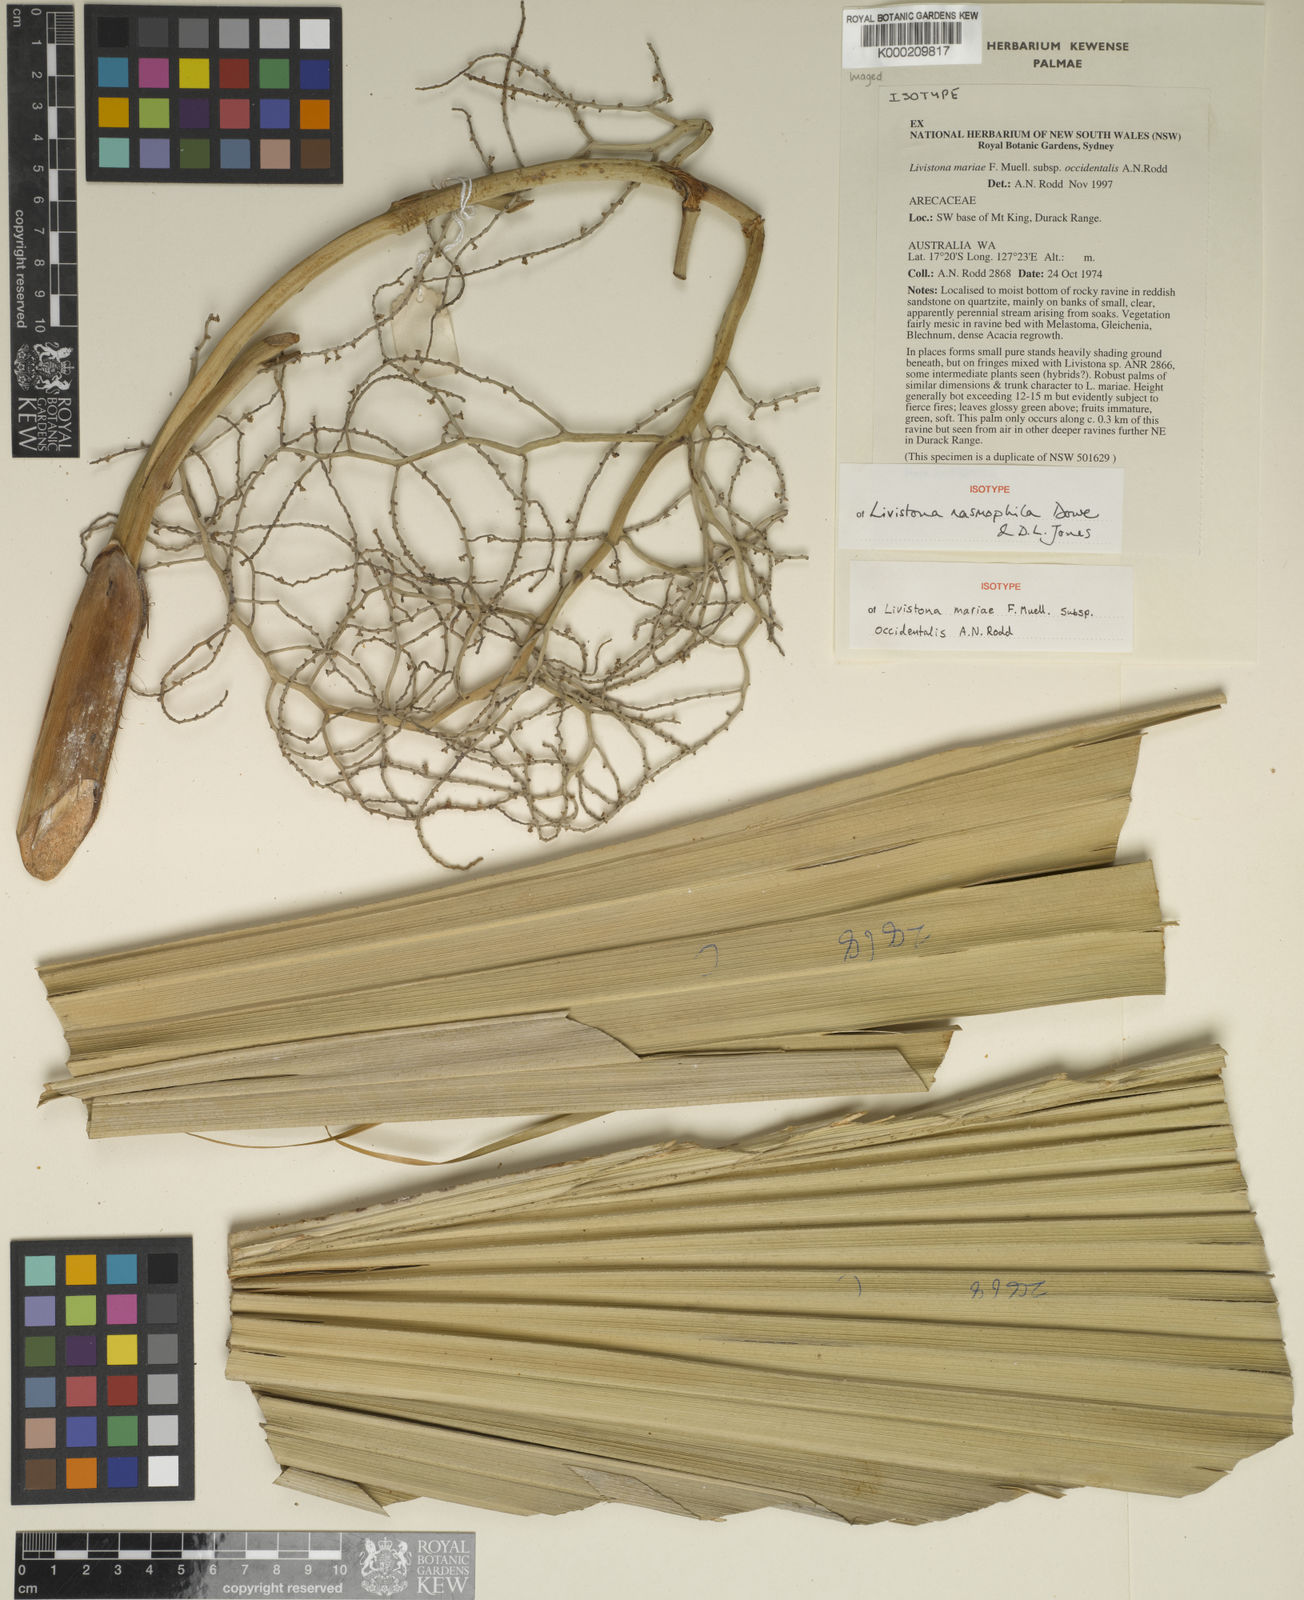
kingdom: Plantae
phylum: Tracheophyta
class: Liliopsida
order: Arecales
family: Arecaceae
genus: Livistona
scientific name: Livistona nasmophila
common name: Cabbage palm
